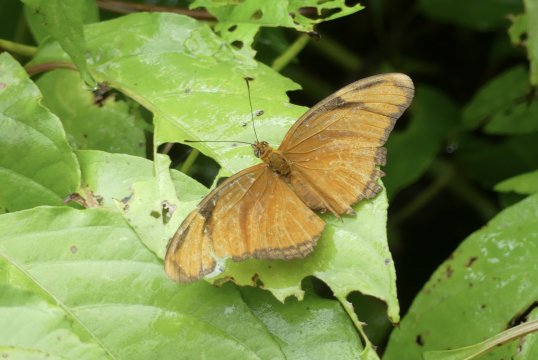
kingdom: Animalia
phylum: Arthropoda
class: Insecta
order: Lepidoptera
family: Nymphalidae
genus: Dryas
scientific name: Dryas iulia
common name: Julia
